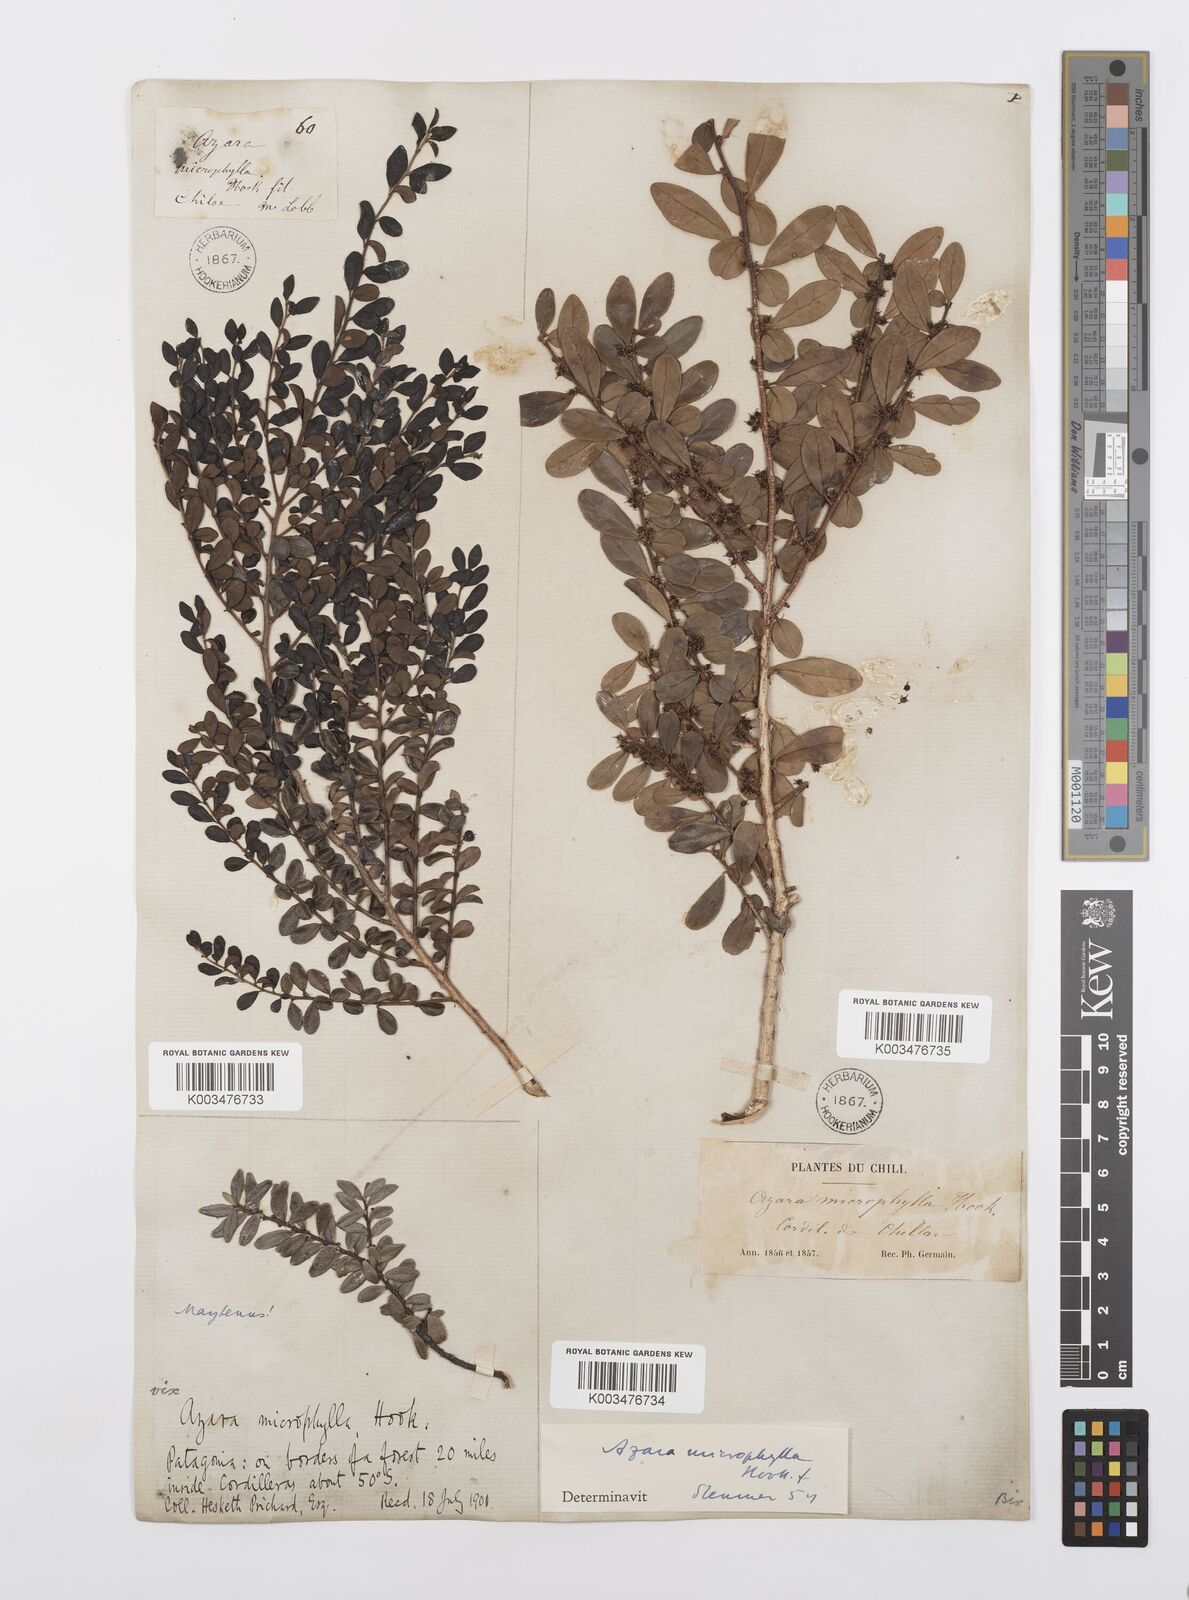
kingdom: Plantae
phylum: Tracheophyta
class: Magnoliopsida
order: Malpighiales
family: Salicaceae
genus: Azara
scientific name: Azara microphylla
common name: Box-leaf azara
